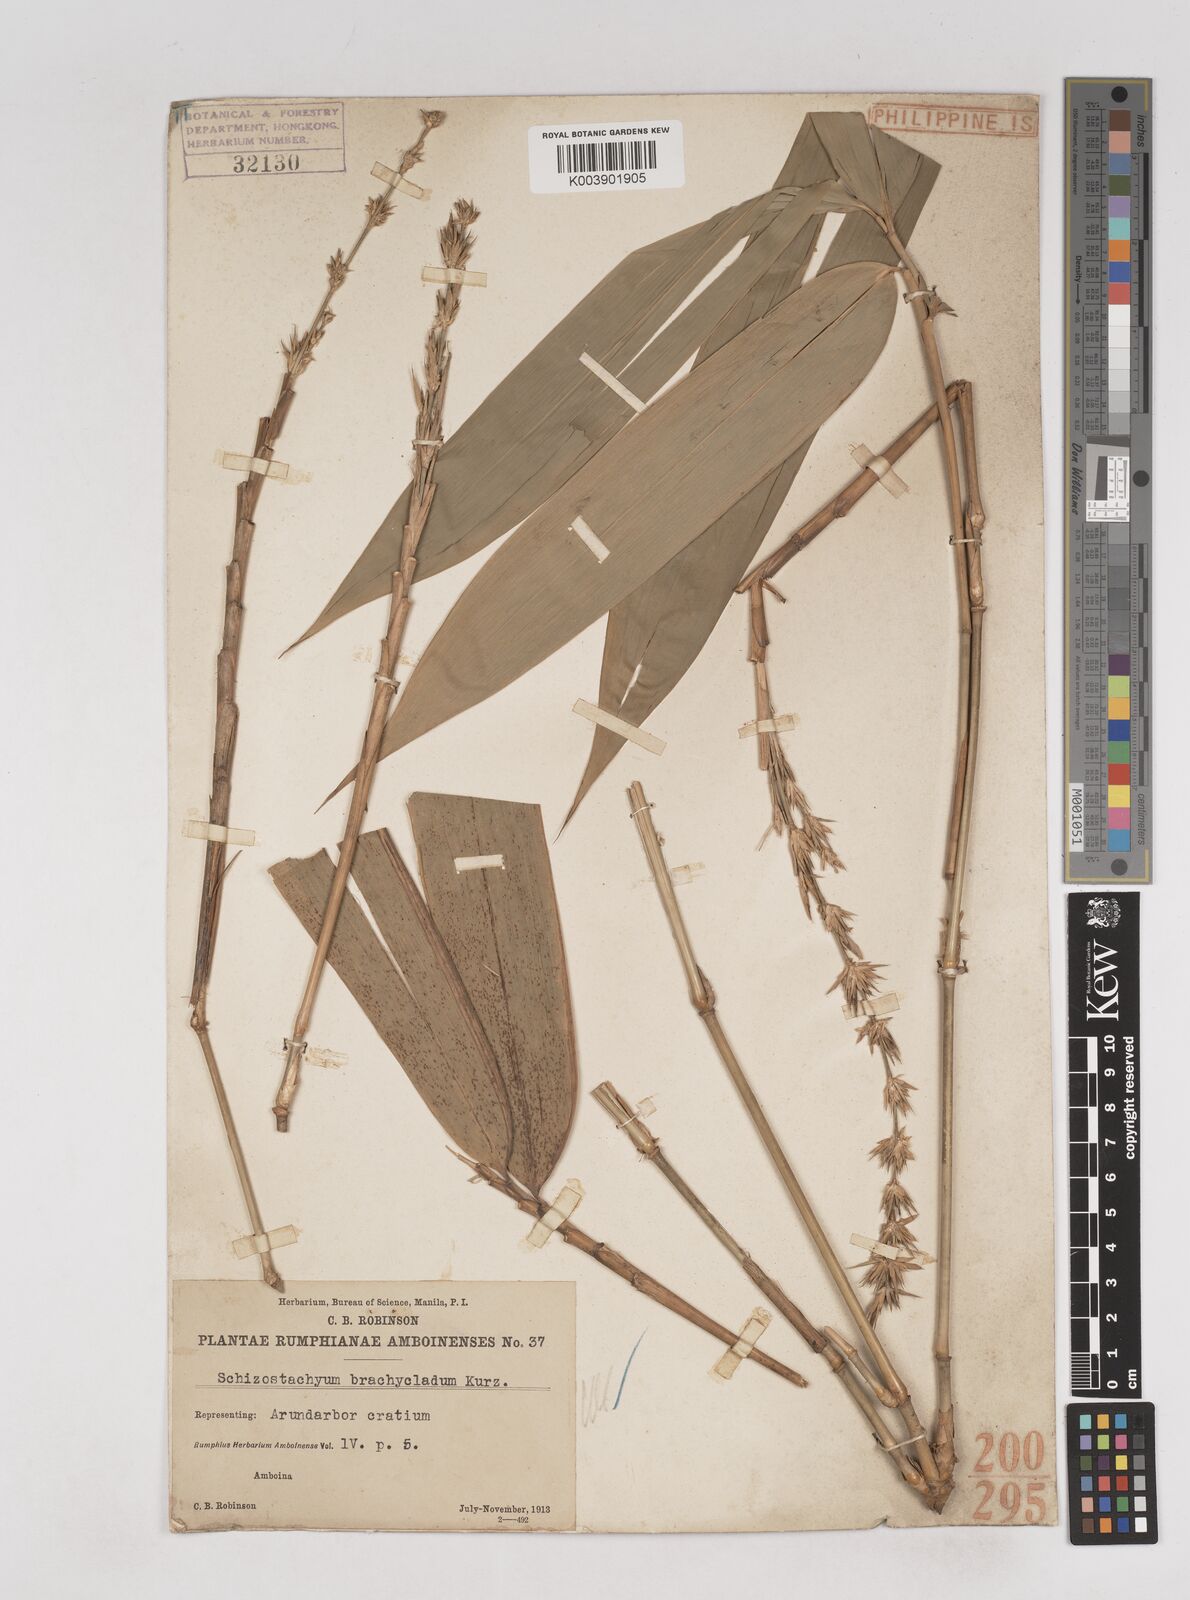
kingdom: Plantae
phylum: Tracheophyta
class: Liliopsida
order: Poales
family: Poaceae
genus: Schizostachyum
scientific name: Schizostachyum brachycladum
